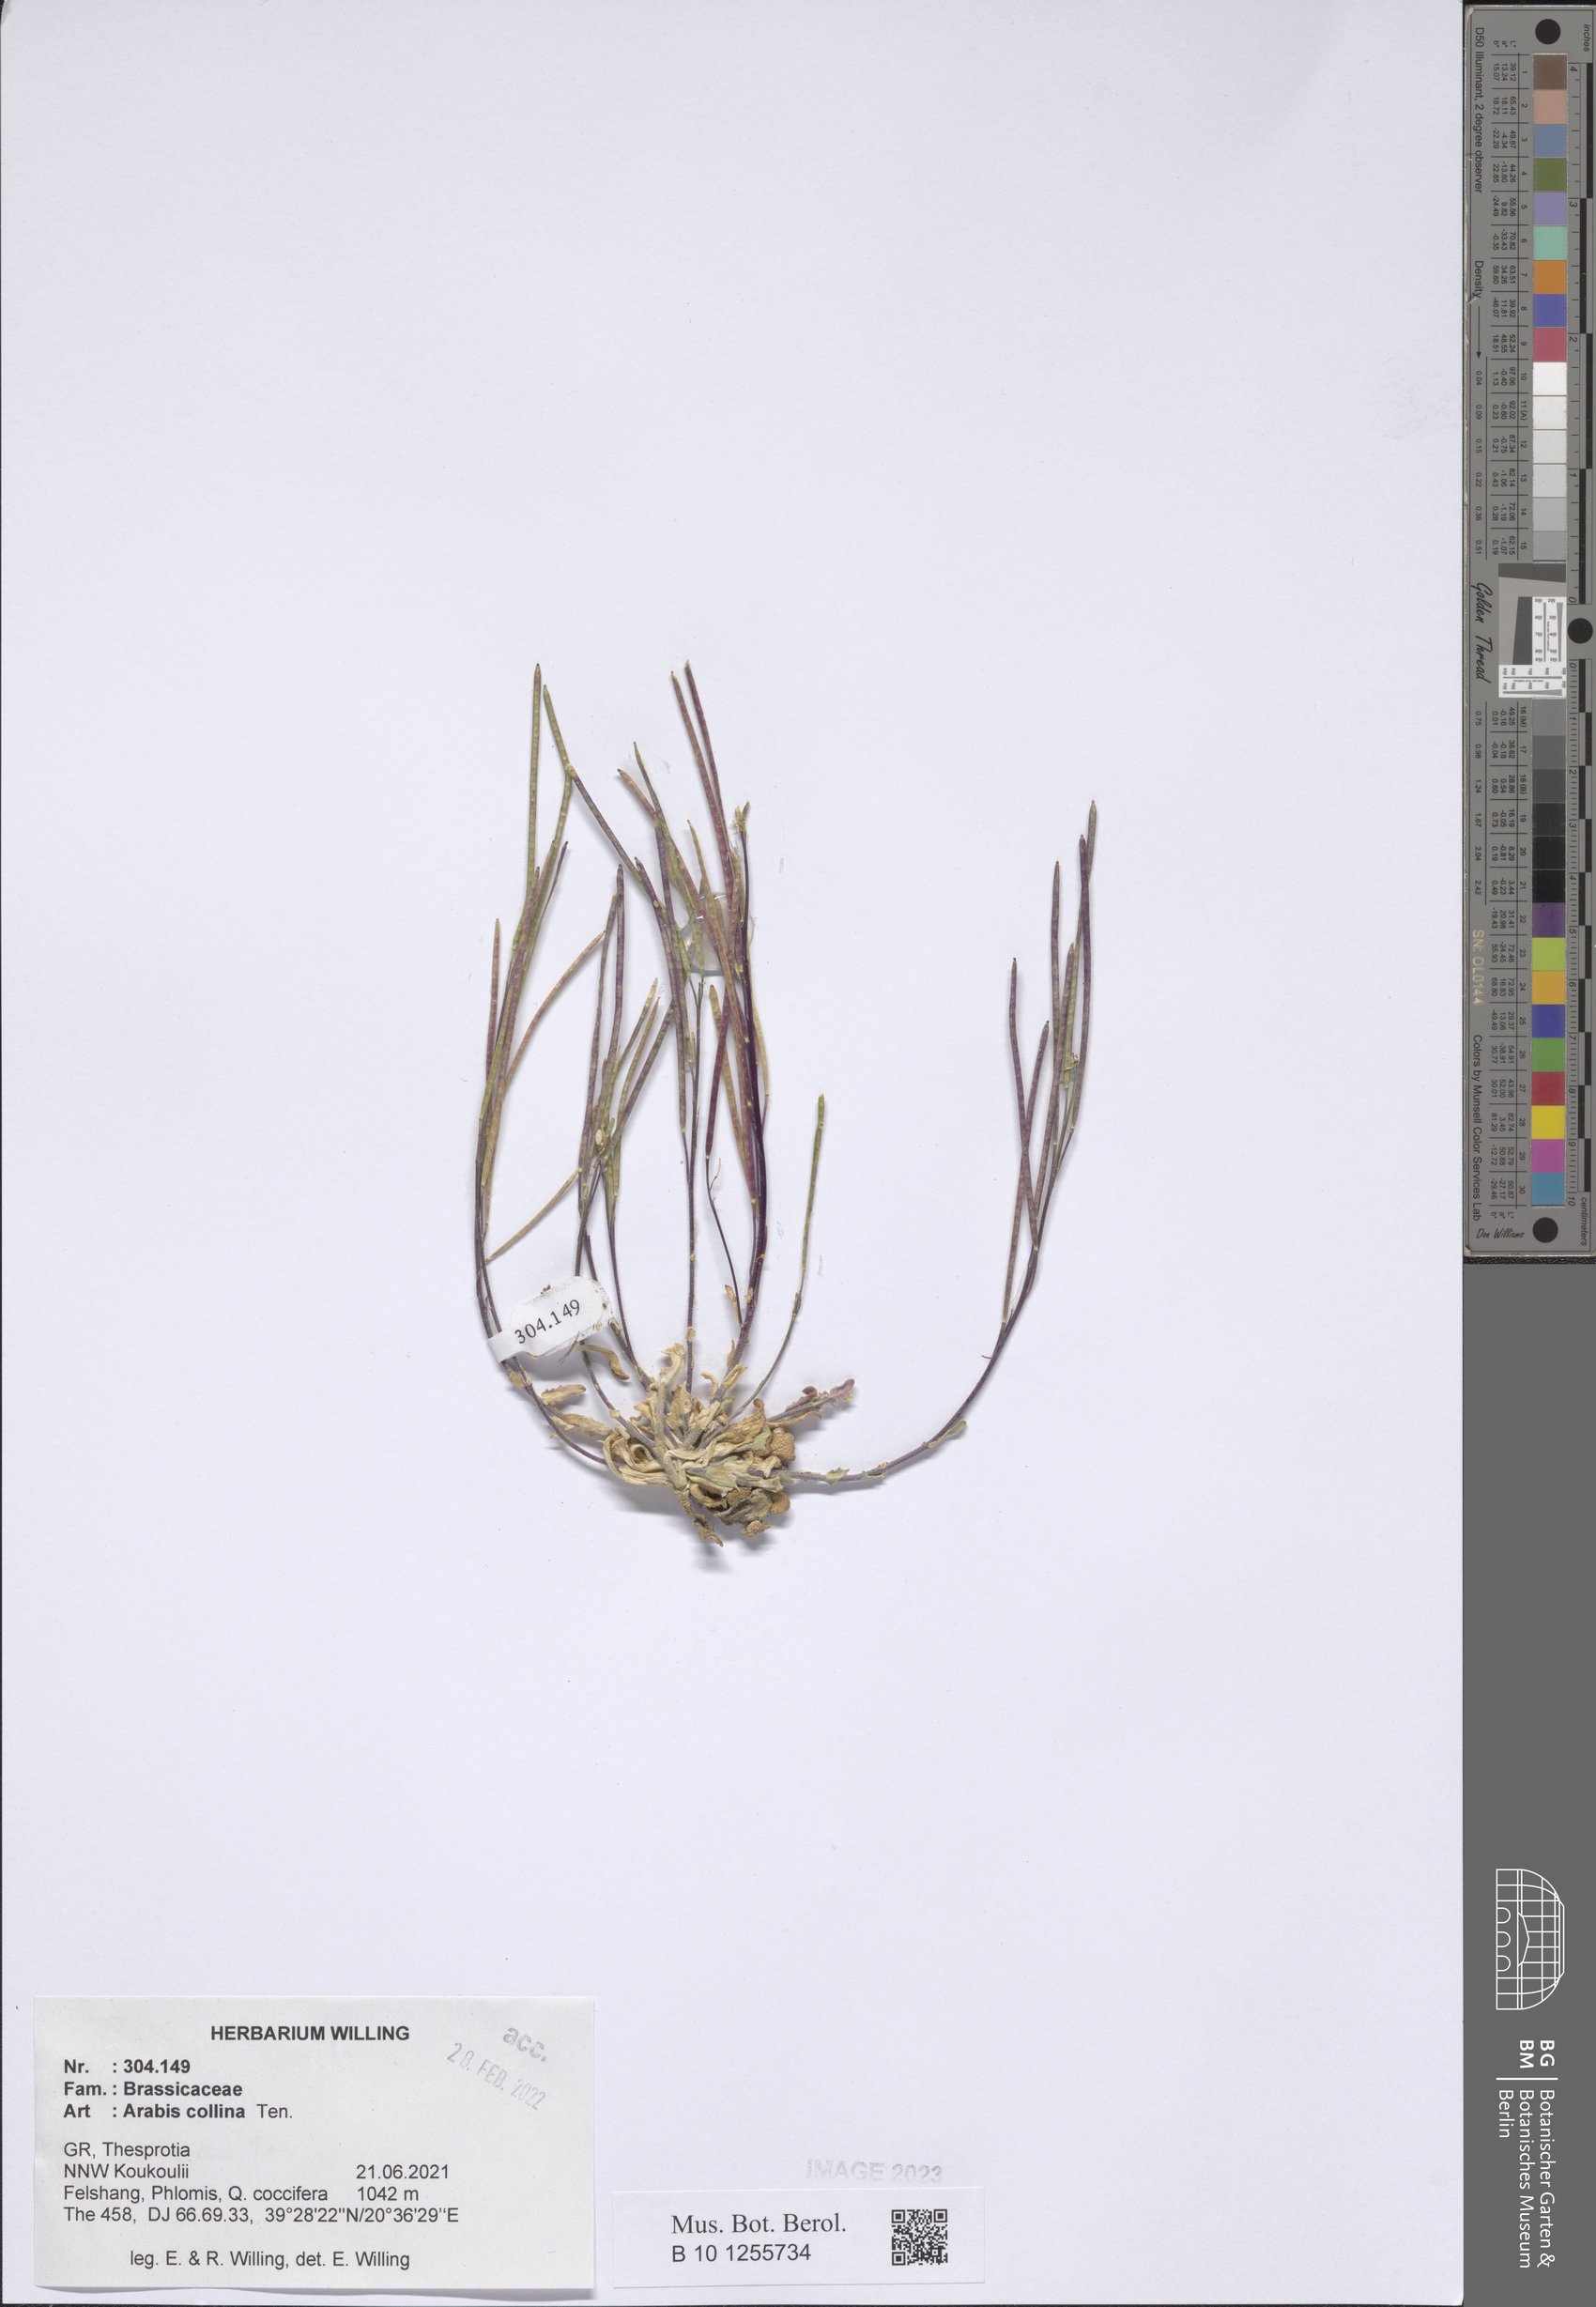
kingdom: Plantae
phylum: Tracheophyta
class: Magnoliopsida
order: Brassicales
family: Brassicaceae
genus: Arabis
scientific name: Arabis collina
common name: Rosy cress
